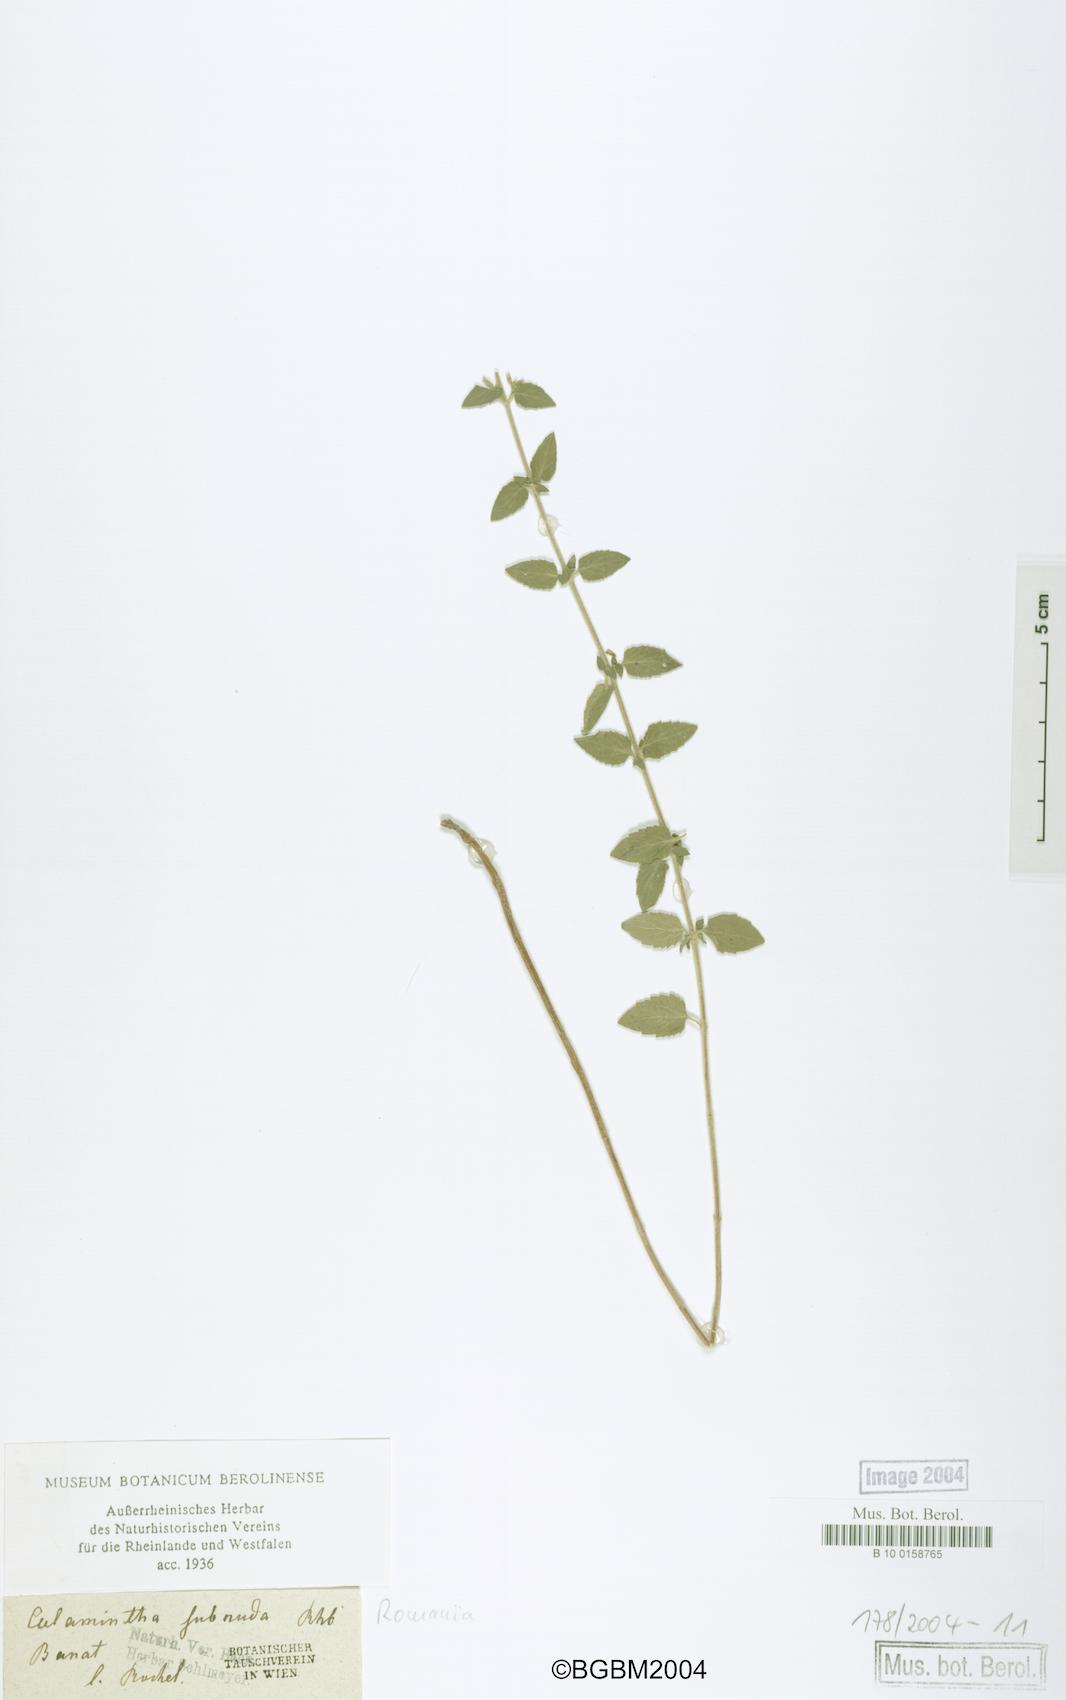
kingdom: Plantae
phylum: Tracheophyta
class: Magnoliopsida
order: Lamiales
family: Lamiaceae
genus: Clinopodium
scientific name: Clinopodium pulegium
